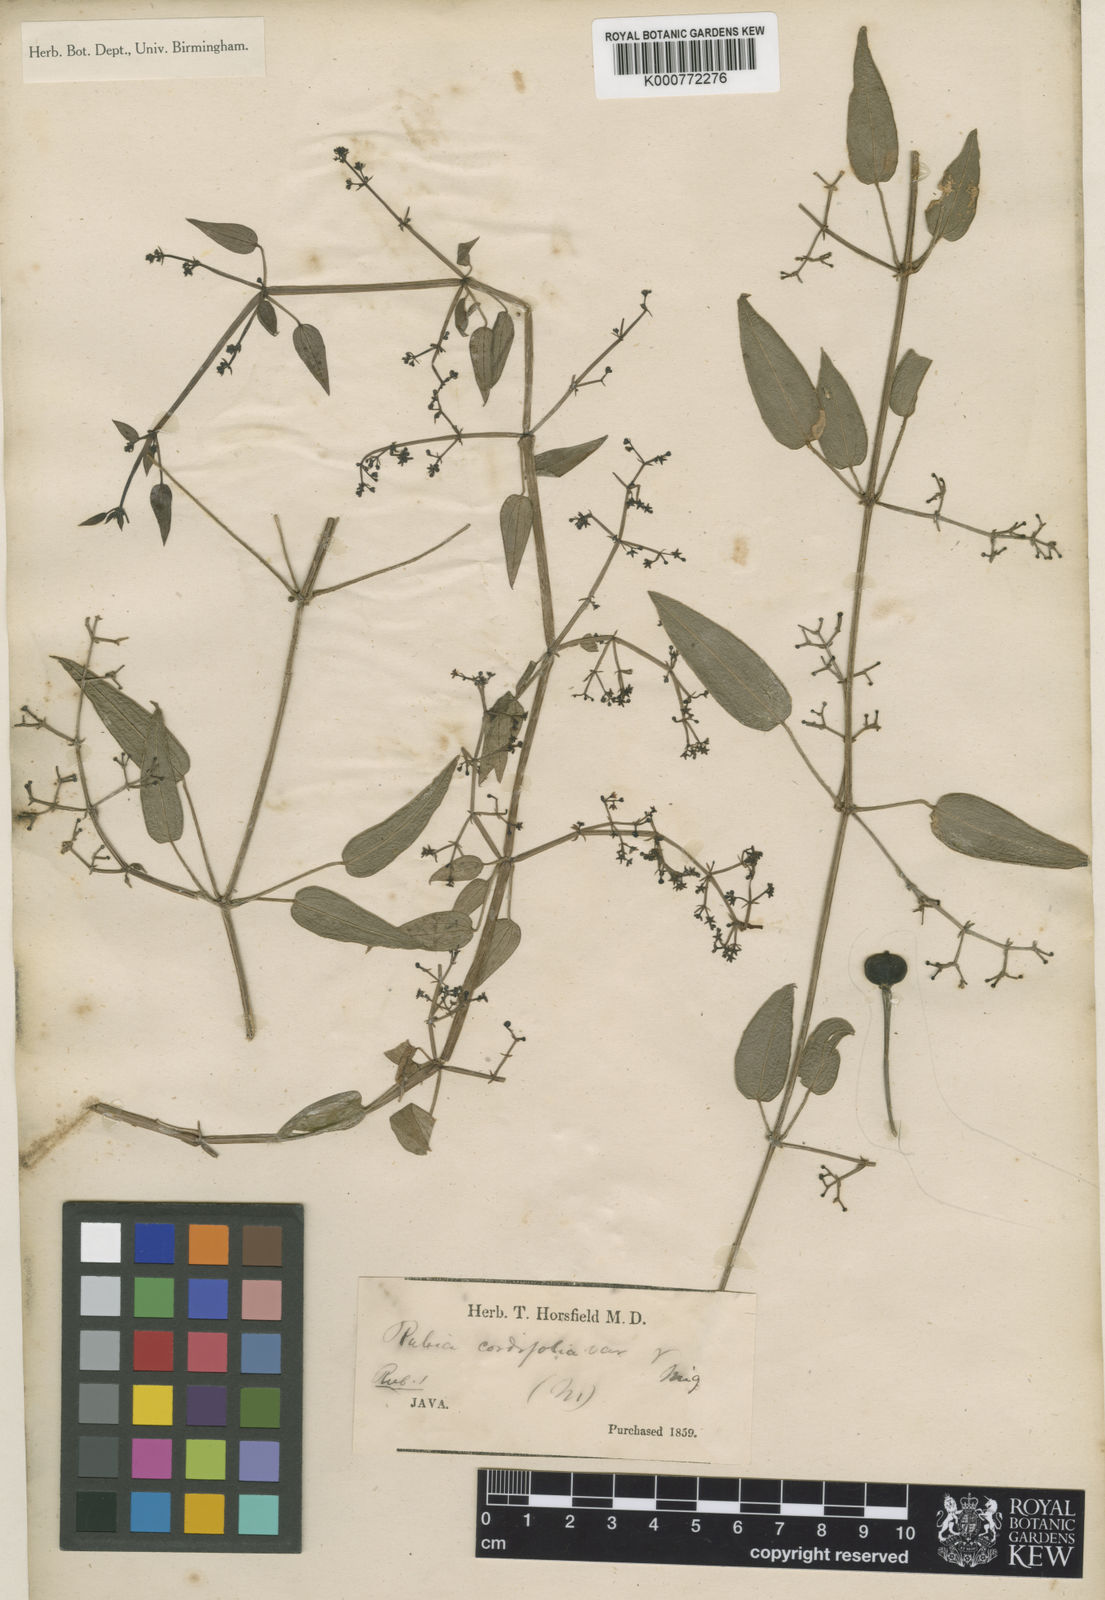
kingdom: Plantae
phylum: Tracheophyta
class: Magnoliopsida
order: Gentianales
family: Rubiaceae
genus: Rubia
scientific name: Rubia cordifolia
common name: Indian madder
